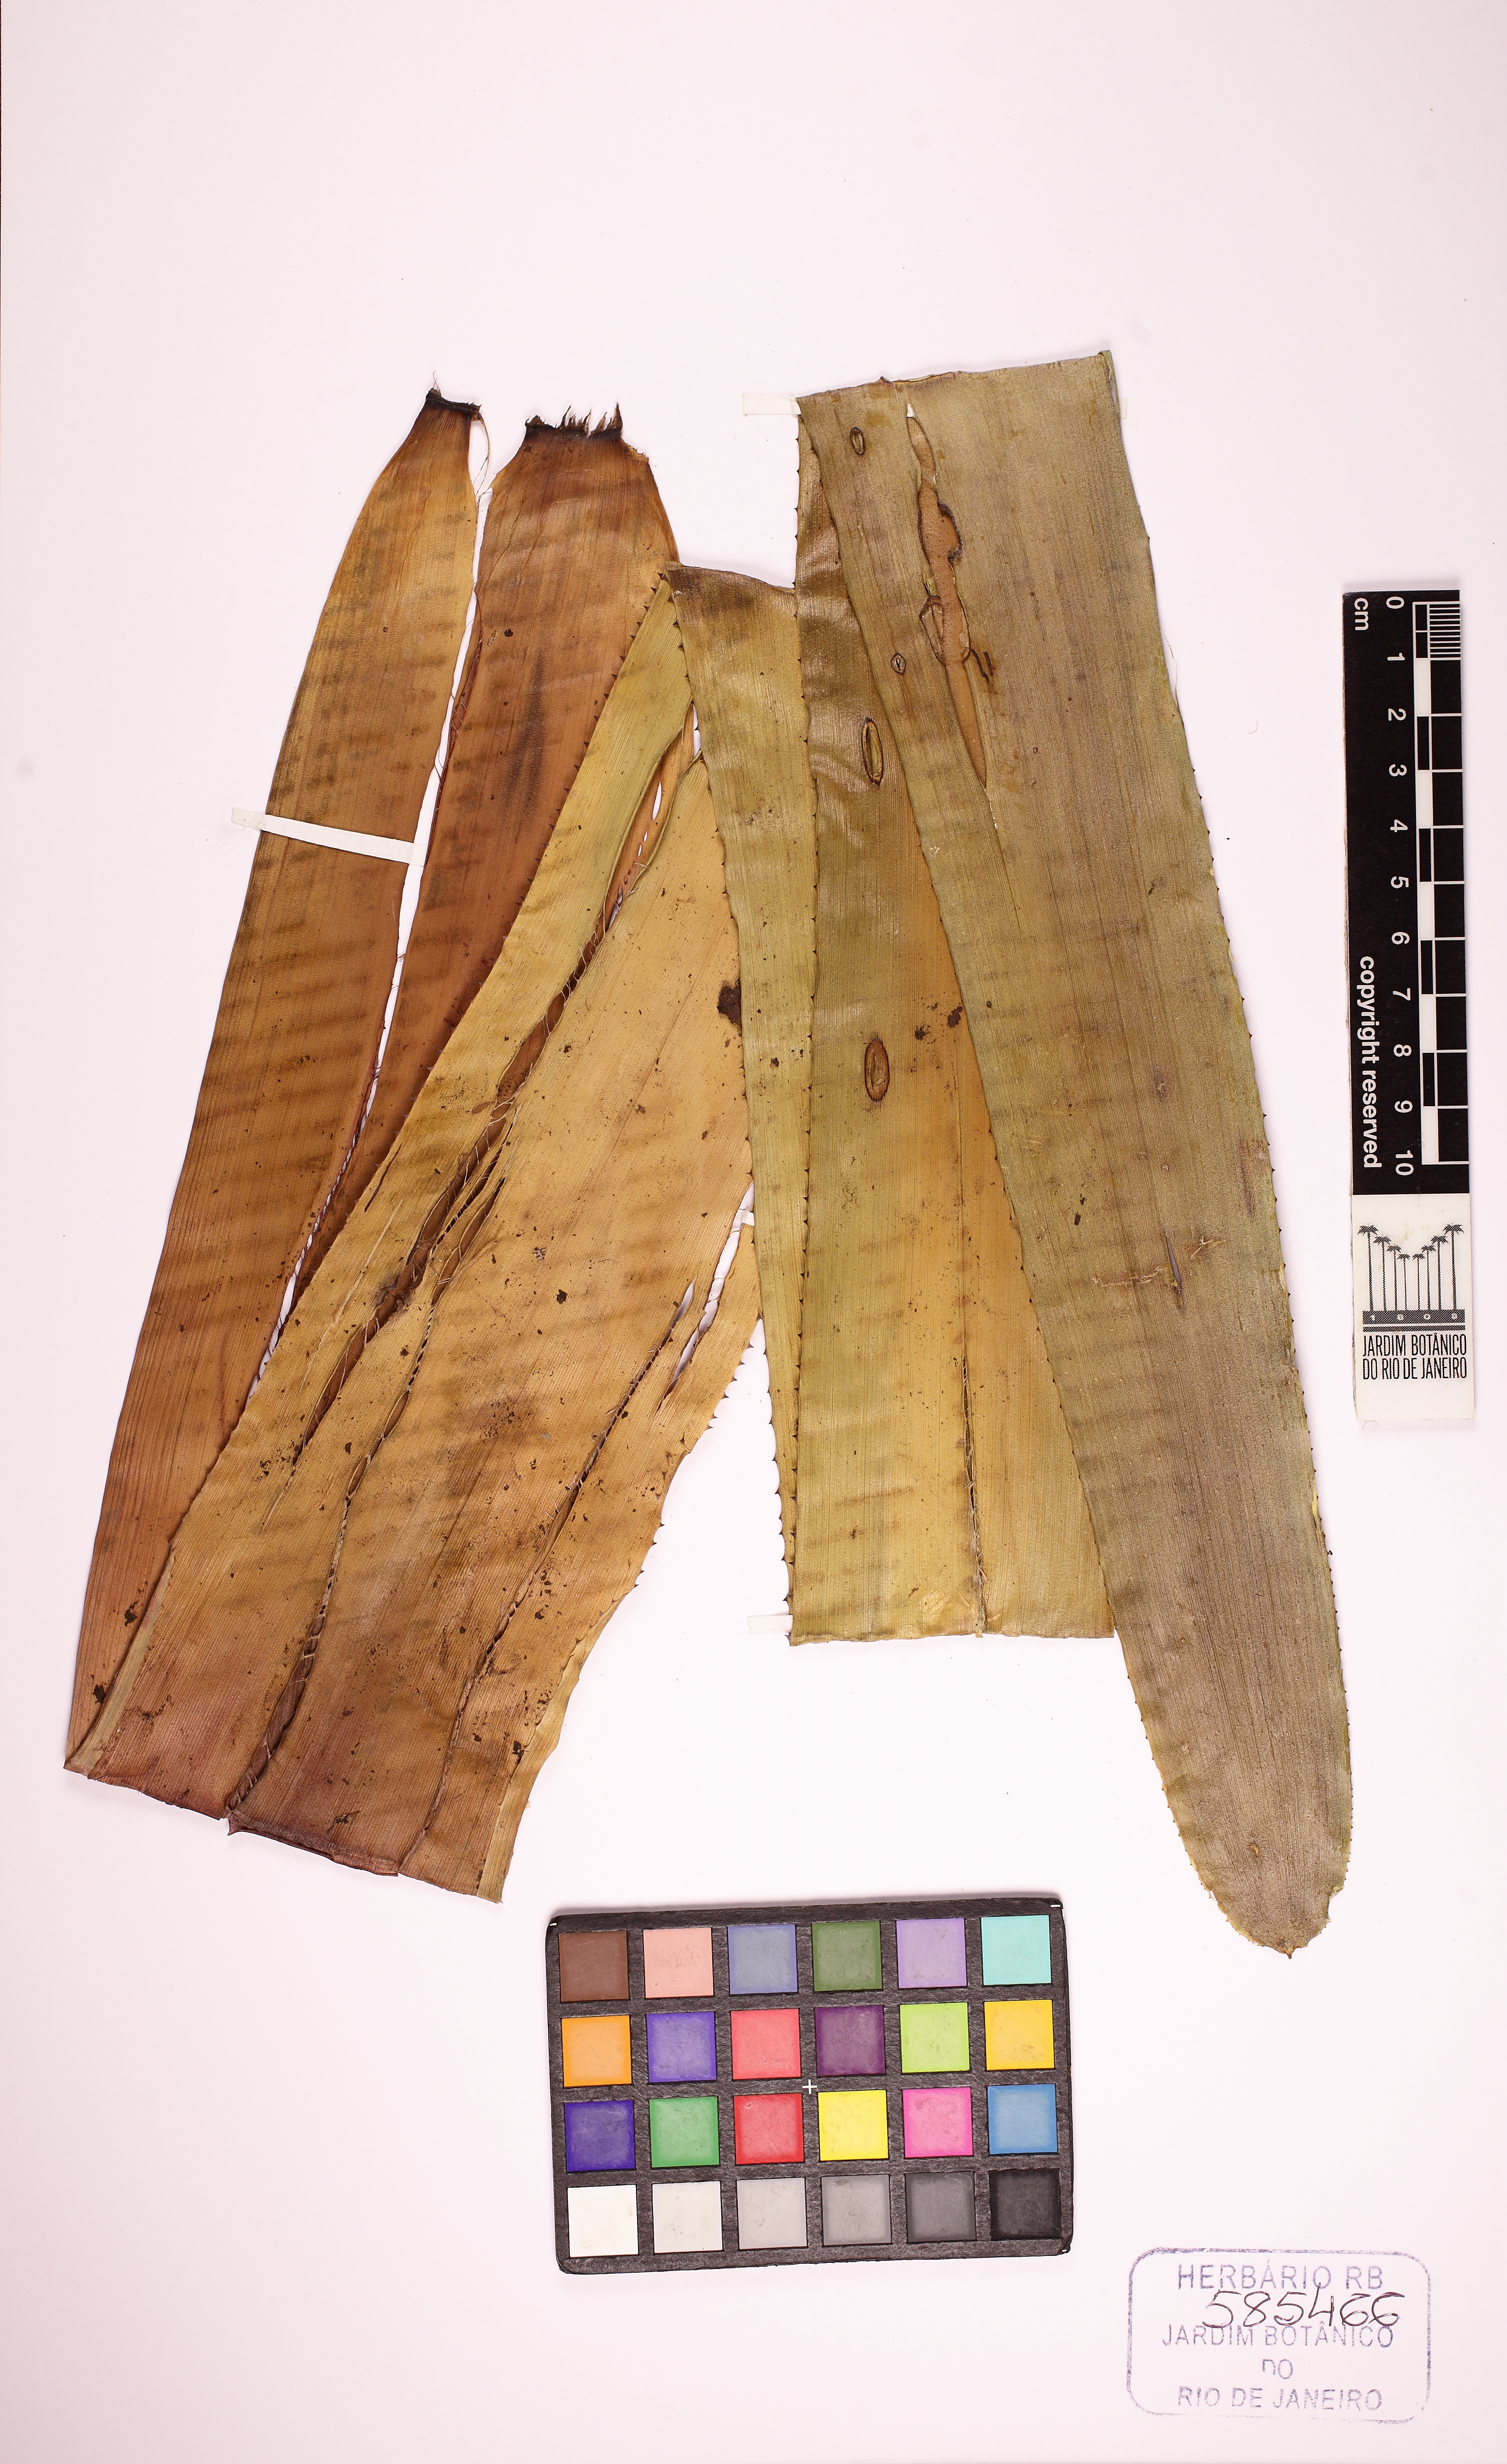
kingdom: Plantae
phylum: Tracheophyta
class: Liliopsida
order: Poales
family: Bromeliaceae
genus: Billbergia
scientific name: Billbergia bradeana
